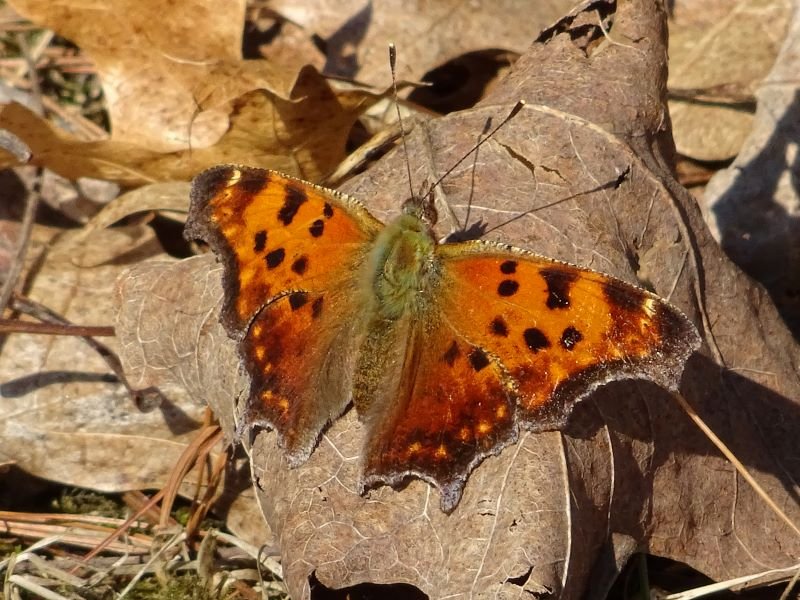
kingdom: Animalia
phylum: Arthropoda
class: Insecta
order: Lepidoptera
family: Nymphalidae
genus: Polygonia
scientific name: Polygonia comma
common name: Eastern Comma
